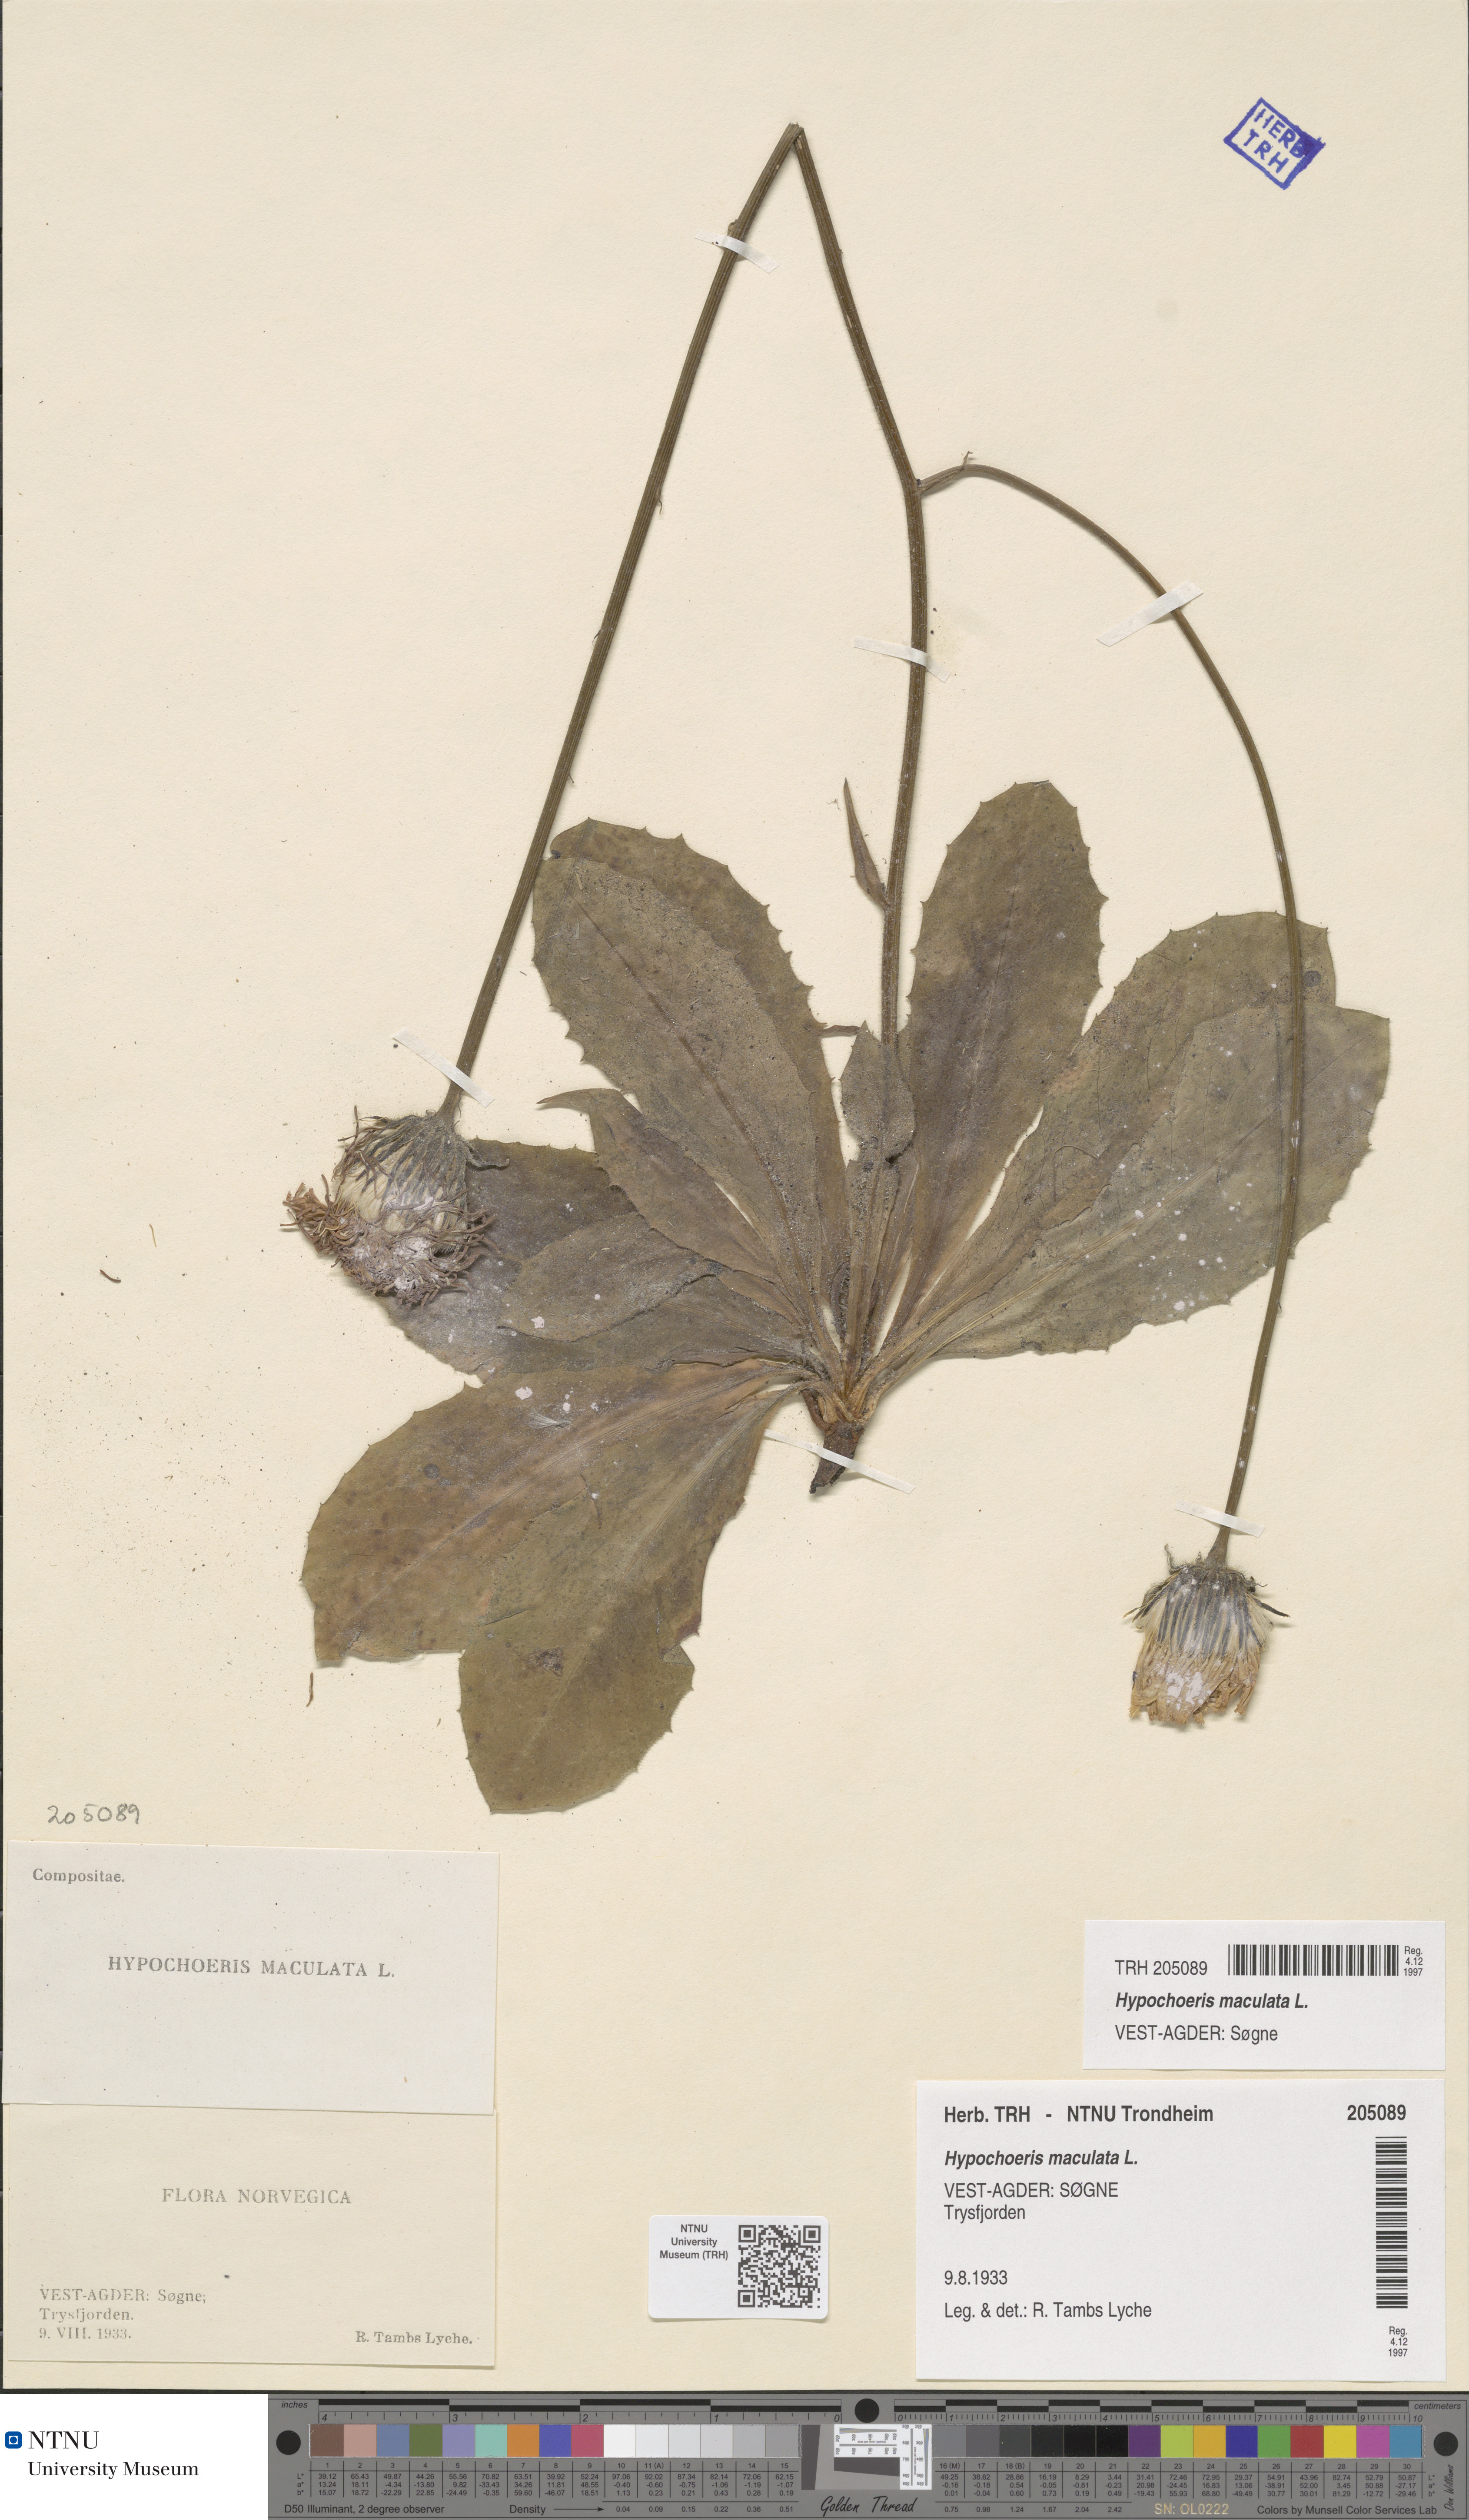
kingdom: Plantae
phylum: Tracheophyta
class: Magnoliopsida
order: Asterales
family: Asteraceae
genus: Trommsdorffia
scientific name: Trommsdorffia maculata
